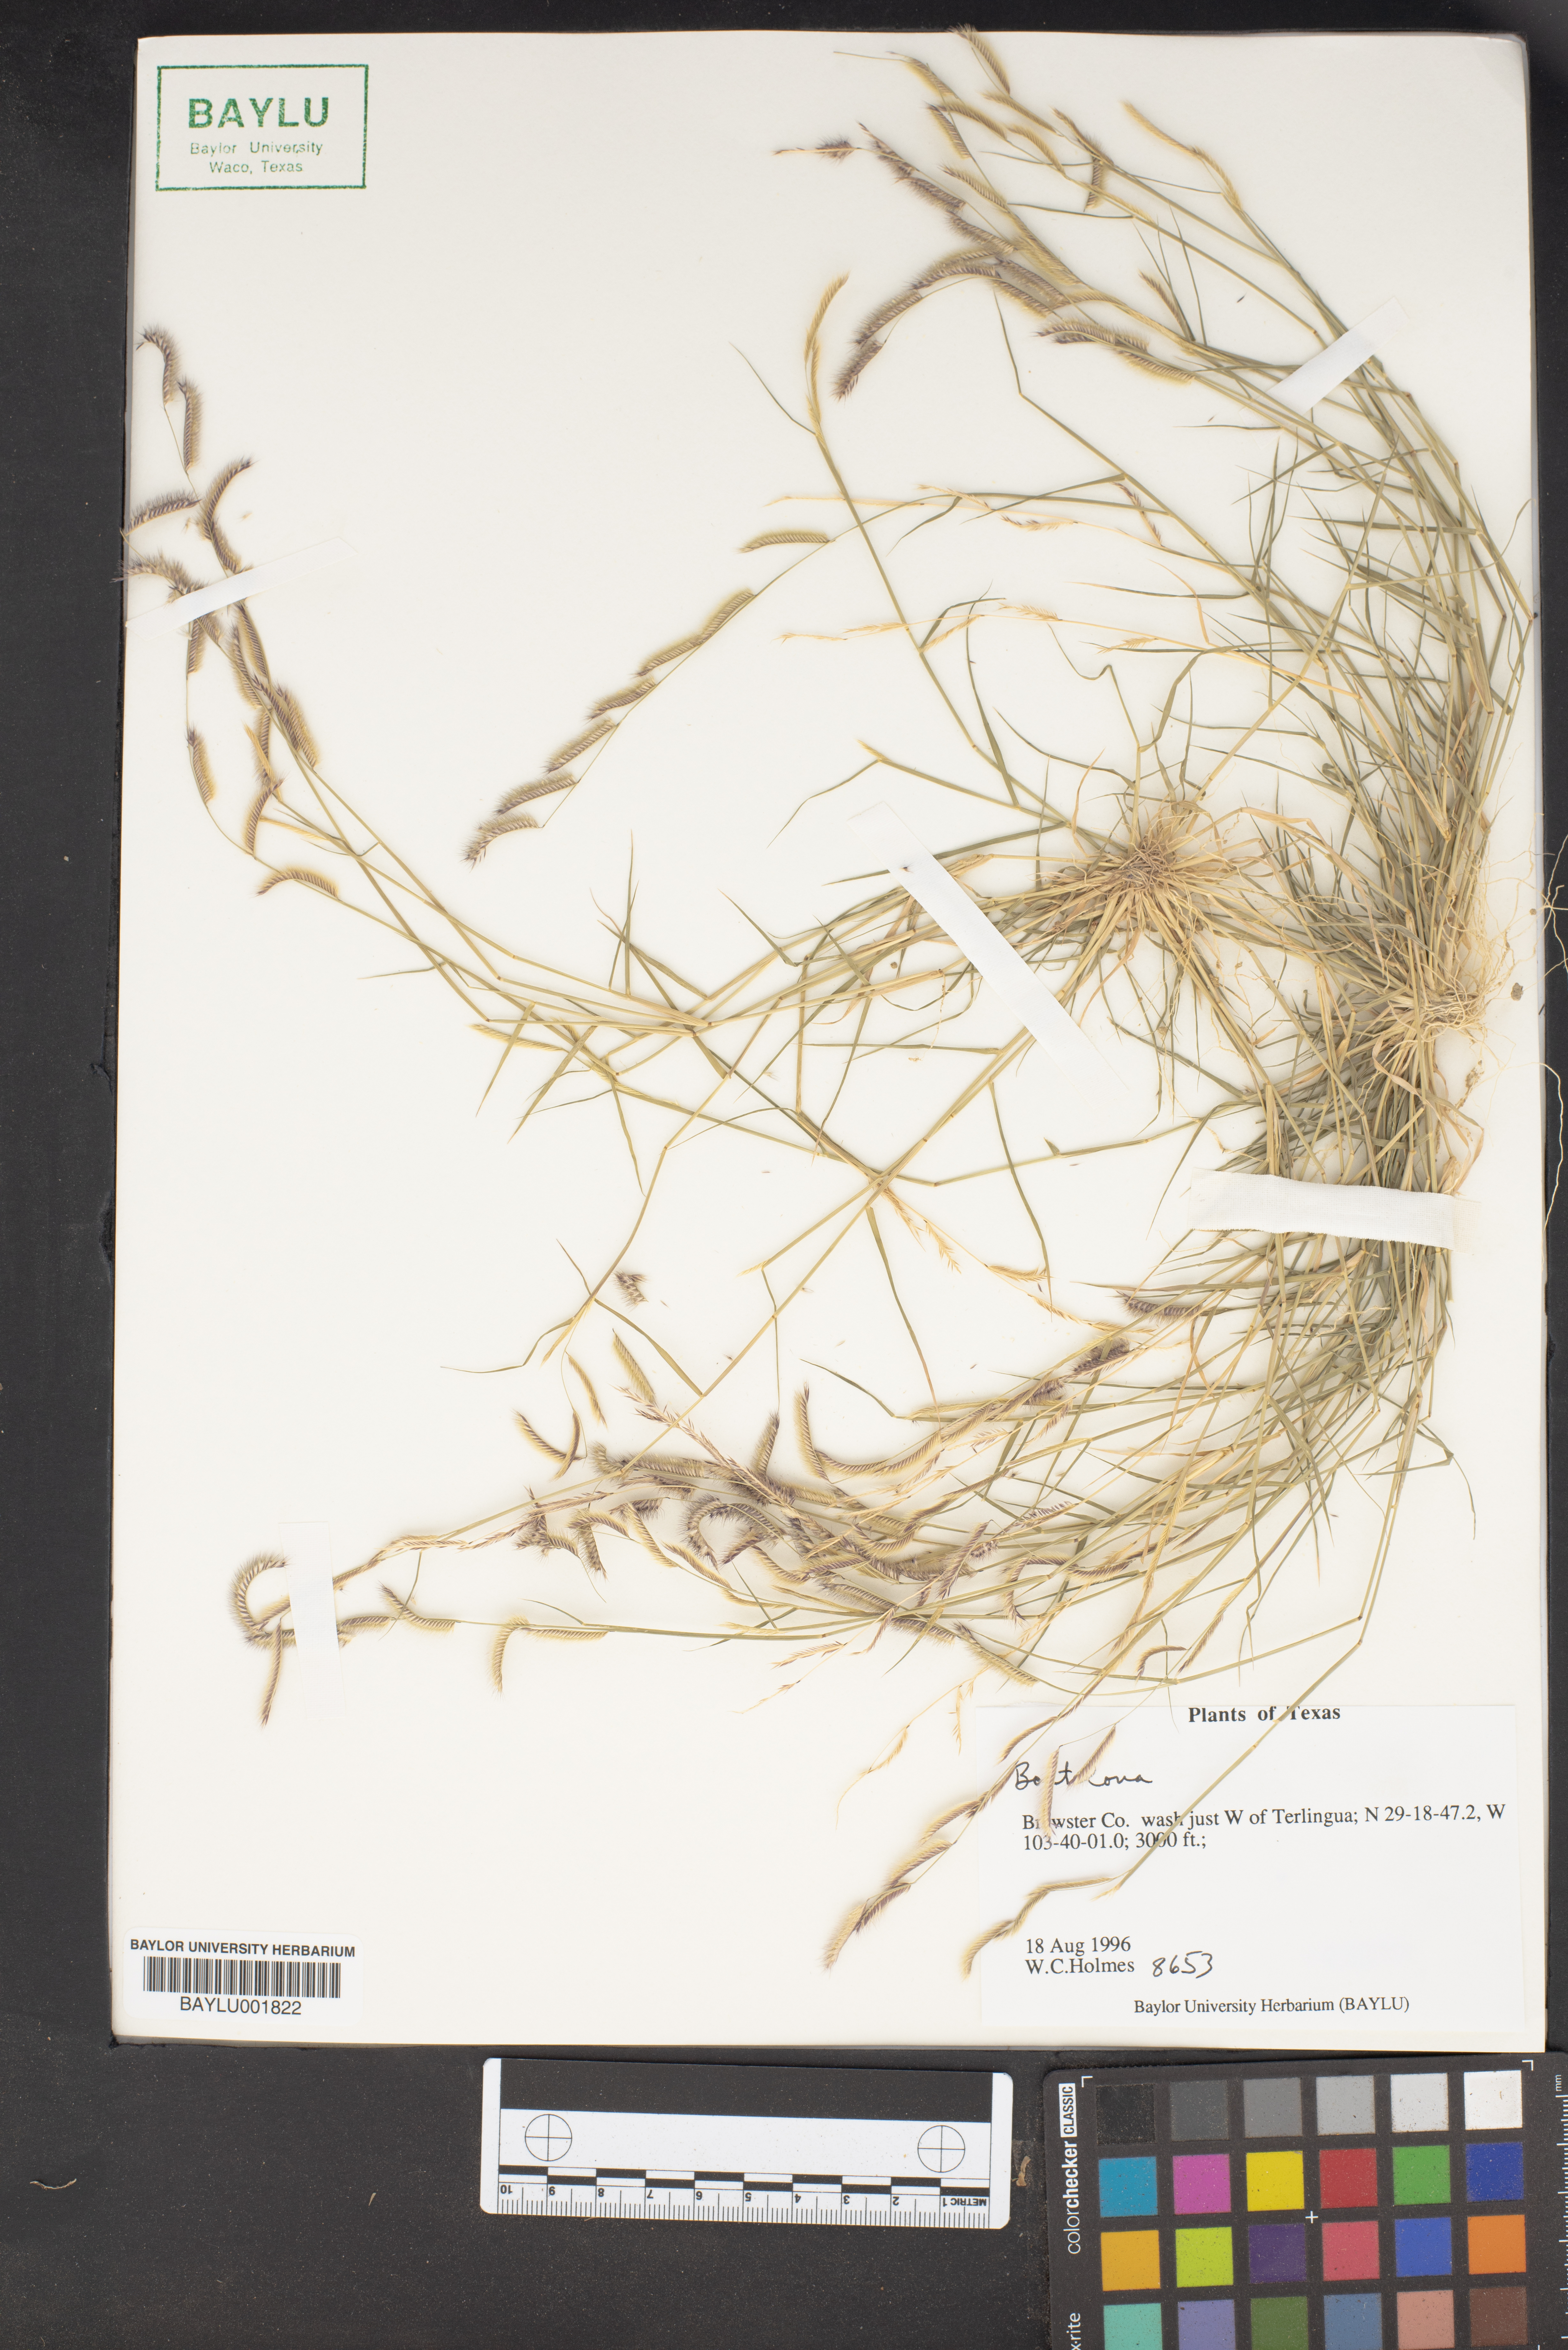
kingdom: Plantae
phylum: Tracheophyta
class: Liliopsida
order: Poales
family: Poaceae
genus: Bouteloua
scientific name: Bouteloua
